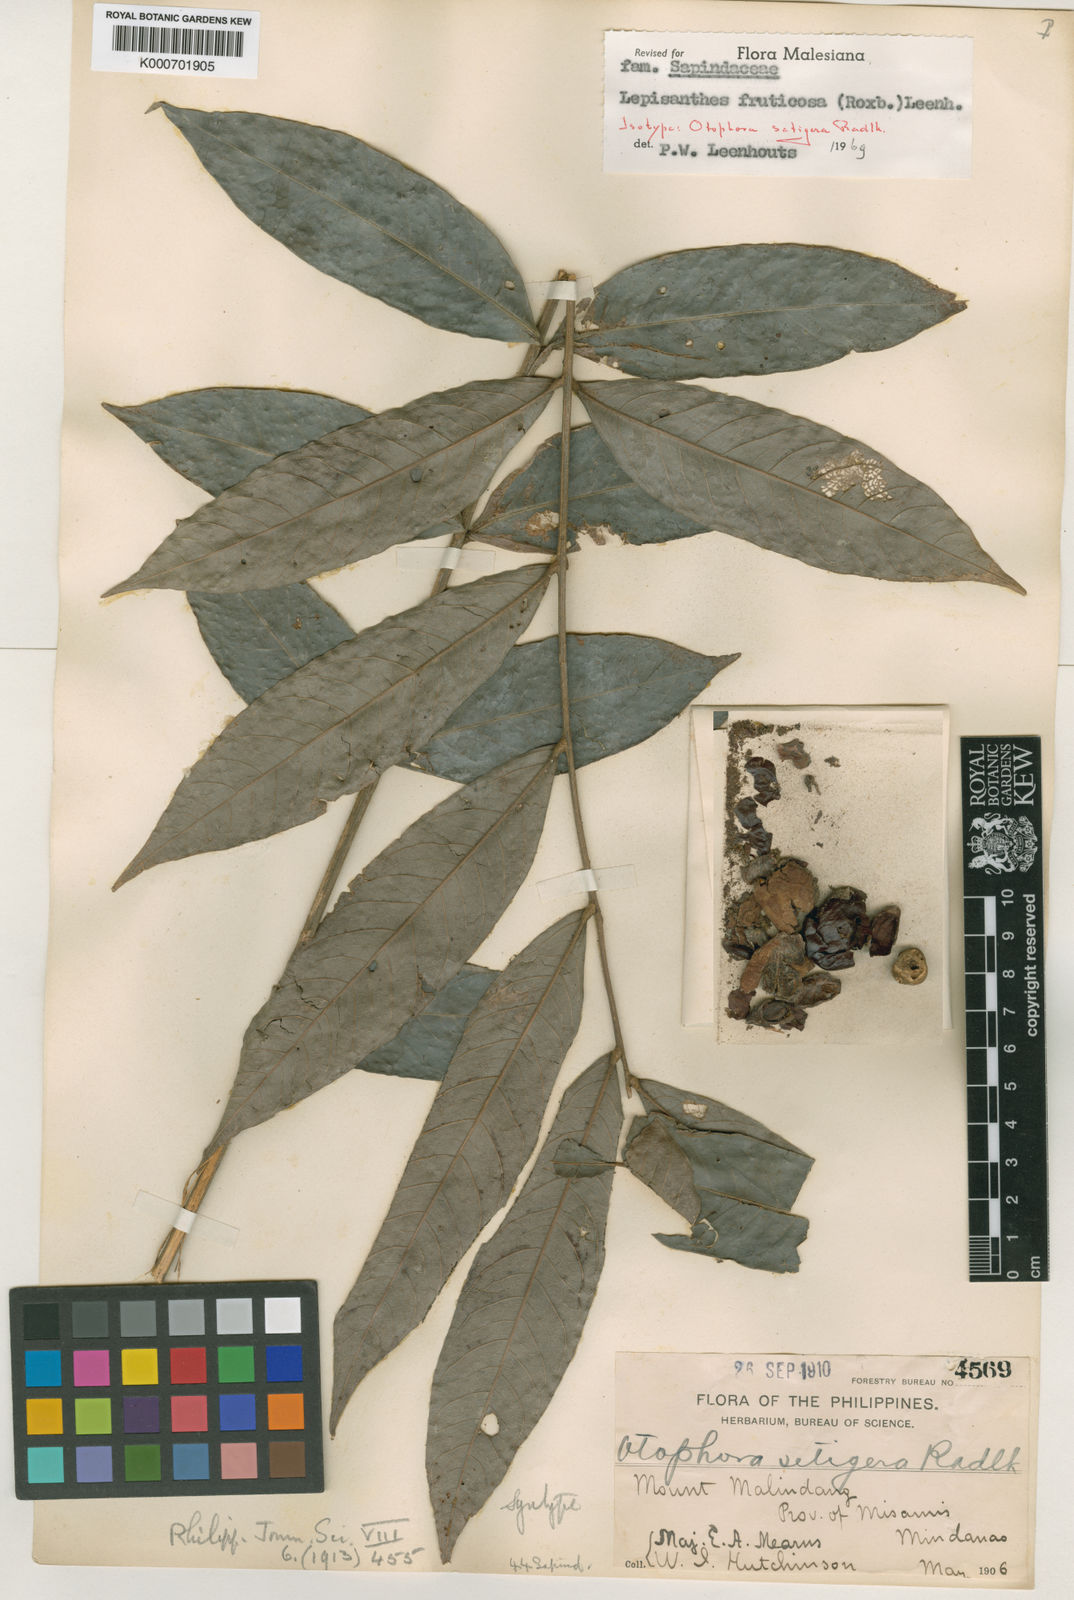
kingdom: Plantae
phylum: Tracheophyta
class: Magnoliopsida
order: Sapindales
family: Sapindaceae
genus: Lepisanthes
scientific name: Lepisanthes fruticosa
